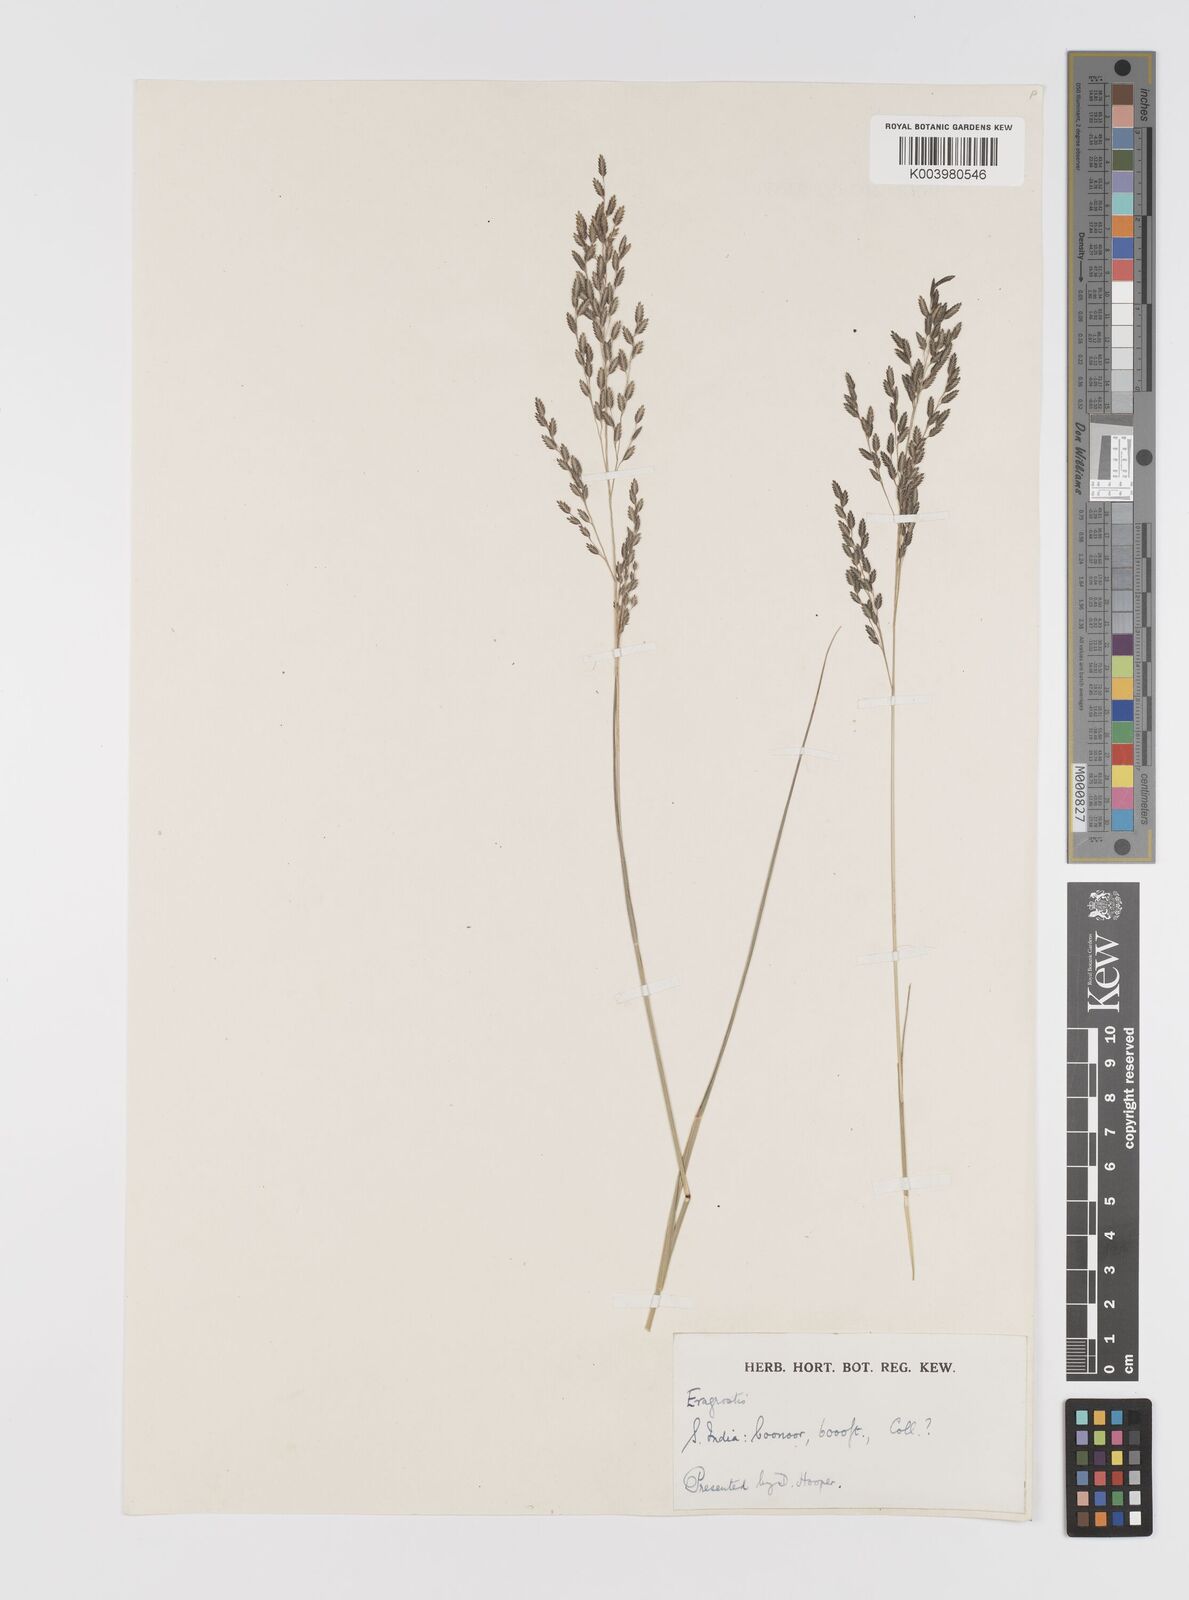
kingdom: Plantae
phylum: Tracheophyta
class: Liliopsida
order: Poales
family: Poaceae
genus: Eragrostis
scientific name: Eragrostis
